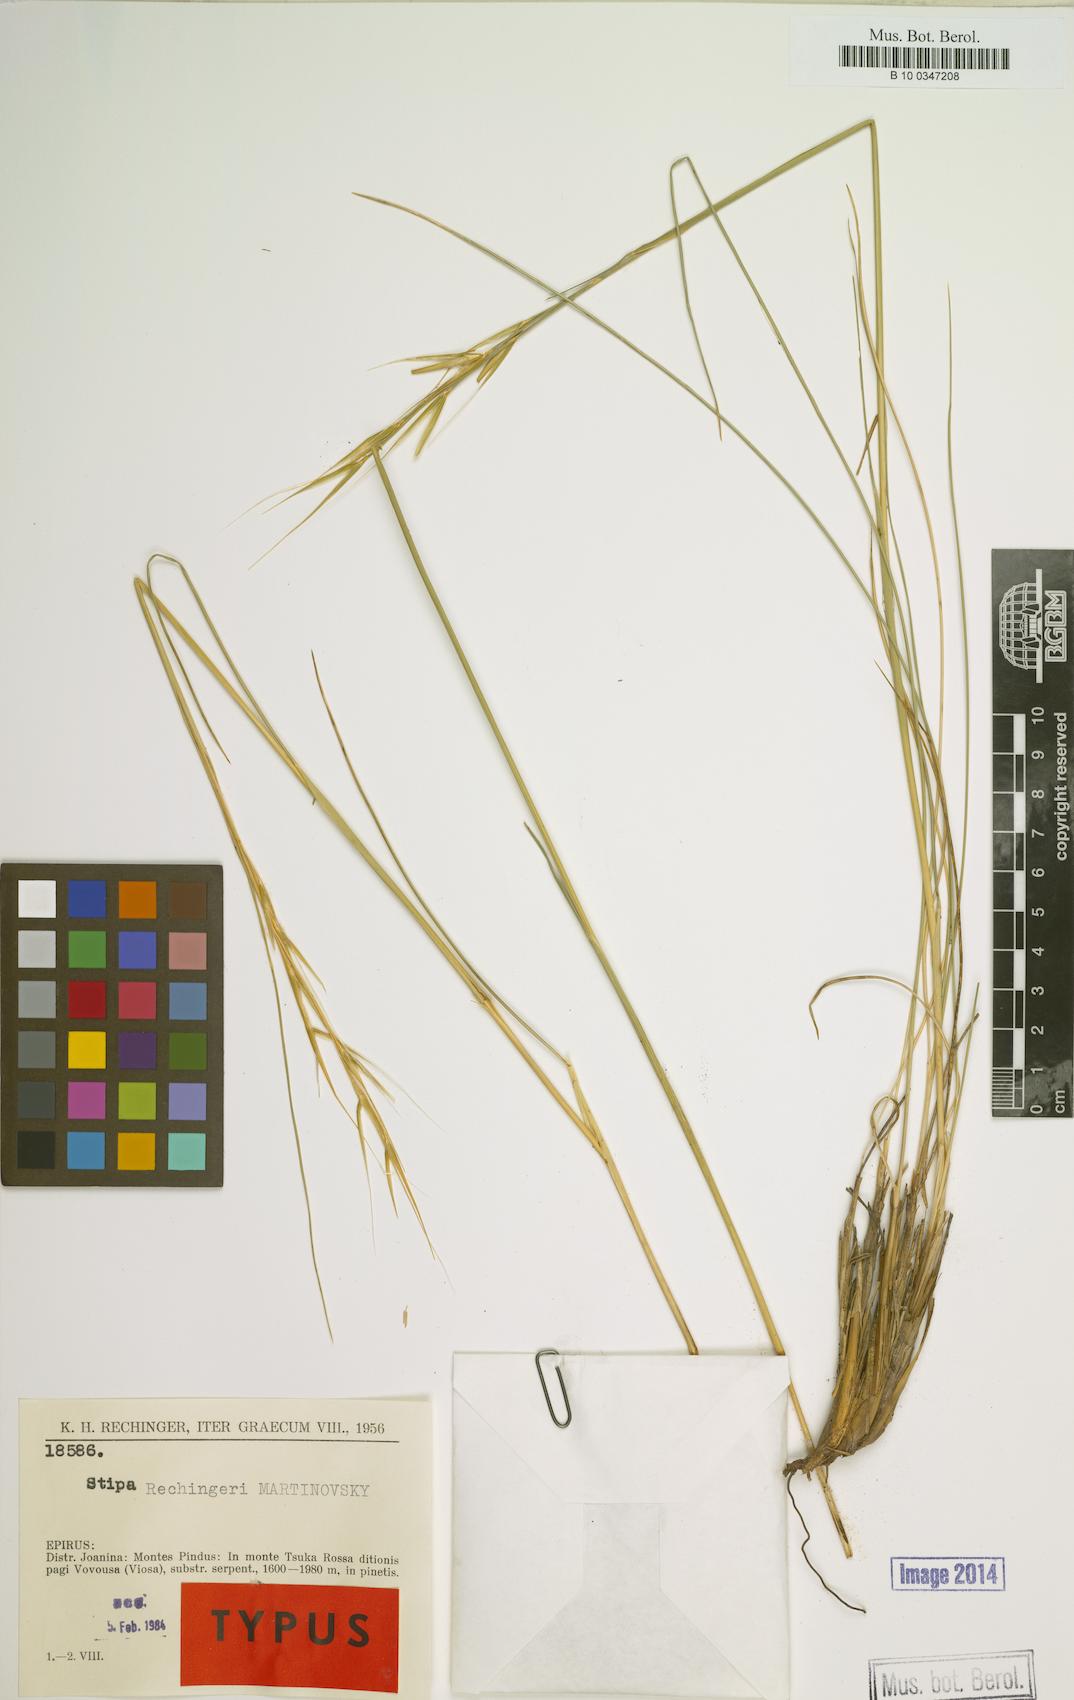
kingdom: Plantae
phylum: Tracheophyta
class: Liliopsida
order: Poales
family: Poaceae
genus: Stipa
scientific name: Stipa rechingeri
